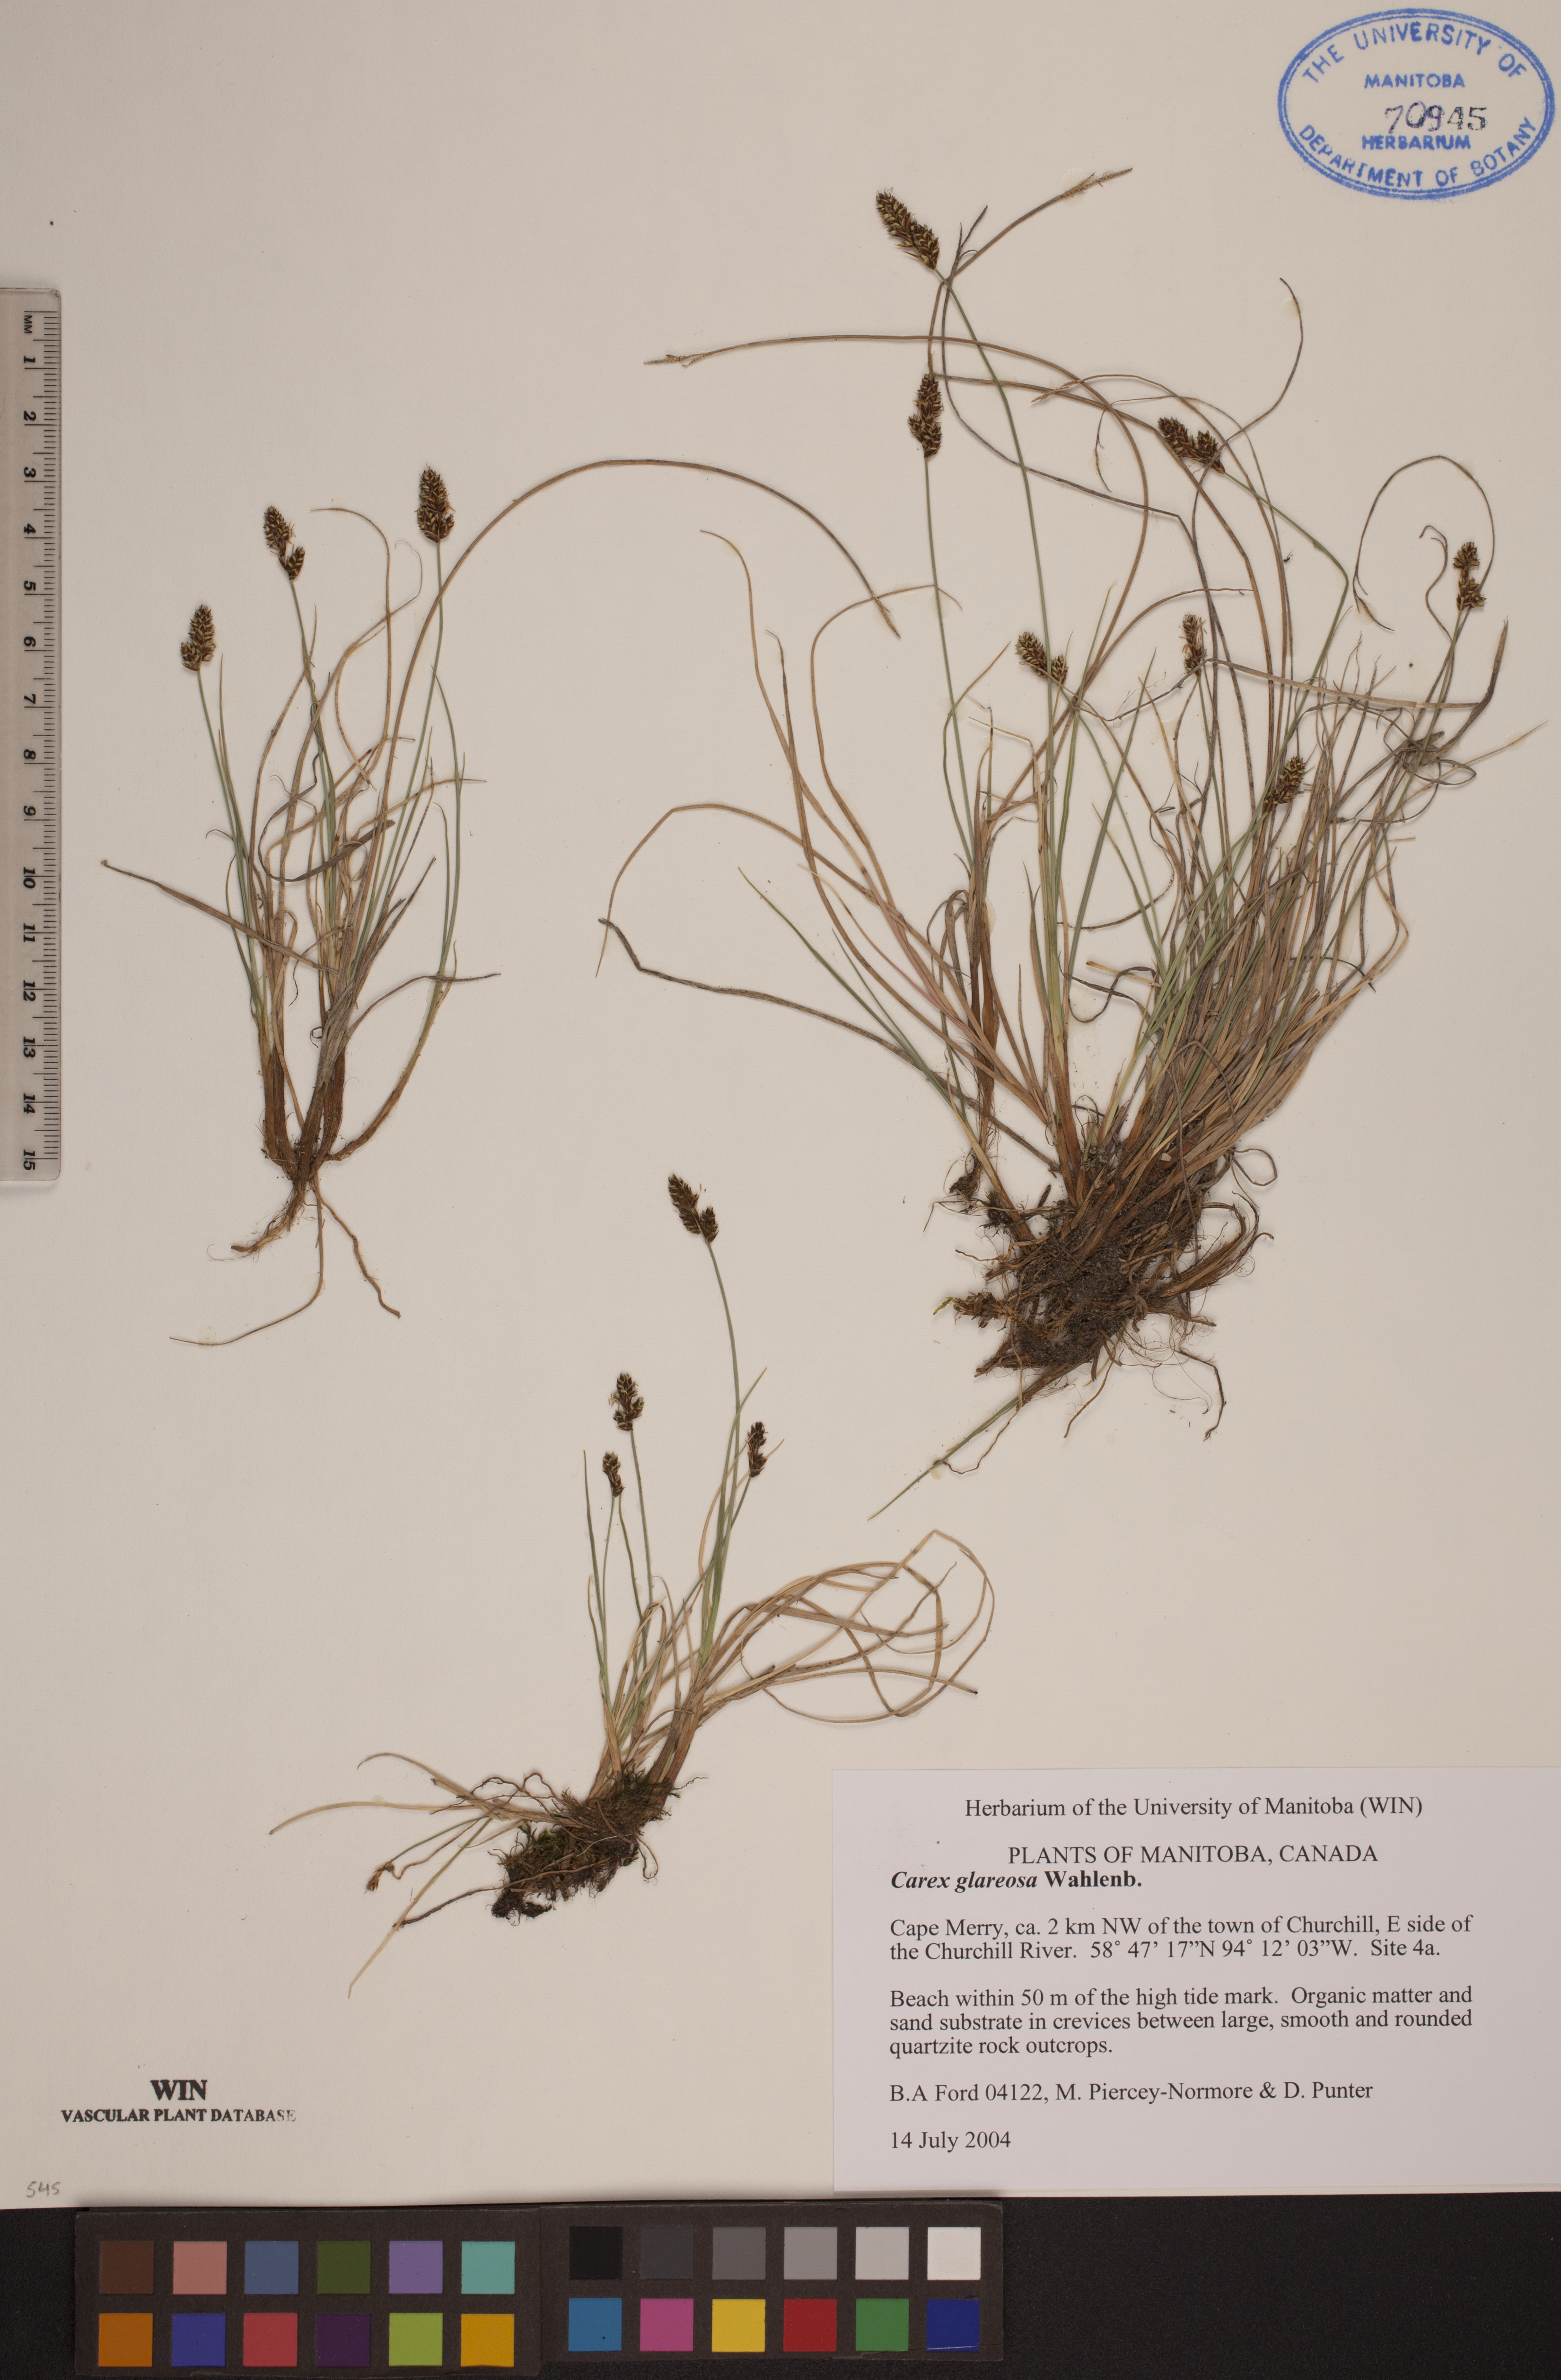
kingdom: Plantae
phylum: Tracheophyta
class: Liliopsida
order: Poales
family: Cyperaceae
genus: Carex
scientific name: Carex glareosa
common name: Clustered sedge
